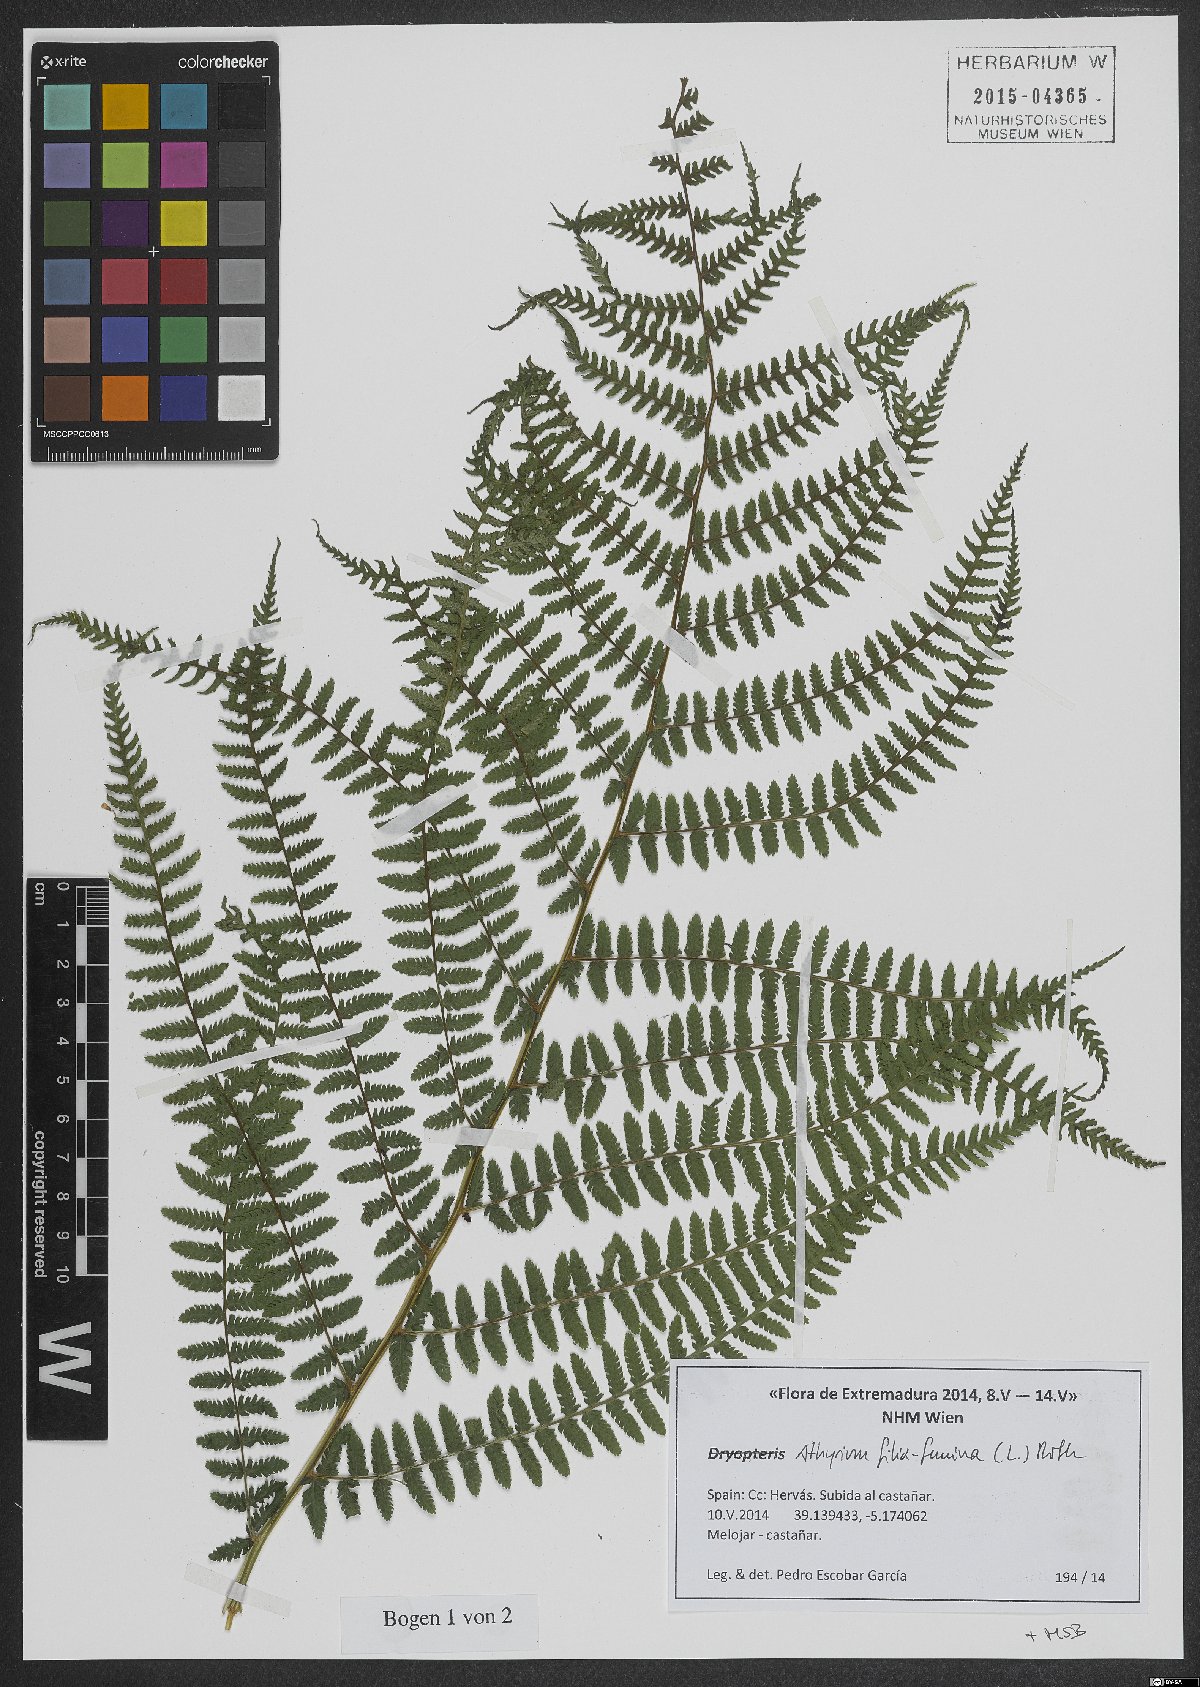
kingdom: Plantae
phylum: Tracheophyta
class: Polypodiopsida
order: Polypodiales
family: Athyriaceae
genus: Athyrium
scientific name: Athyrium filix-femina
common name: Lady fern
